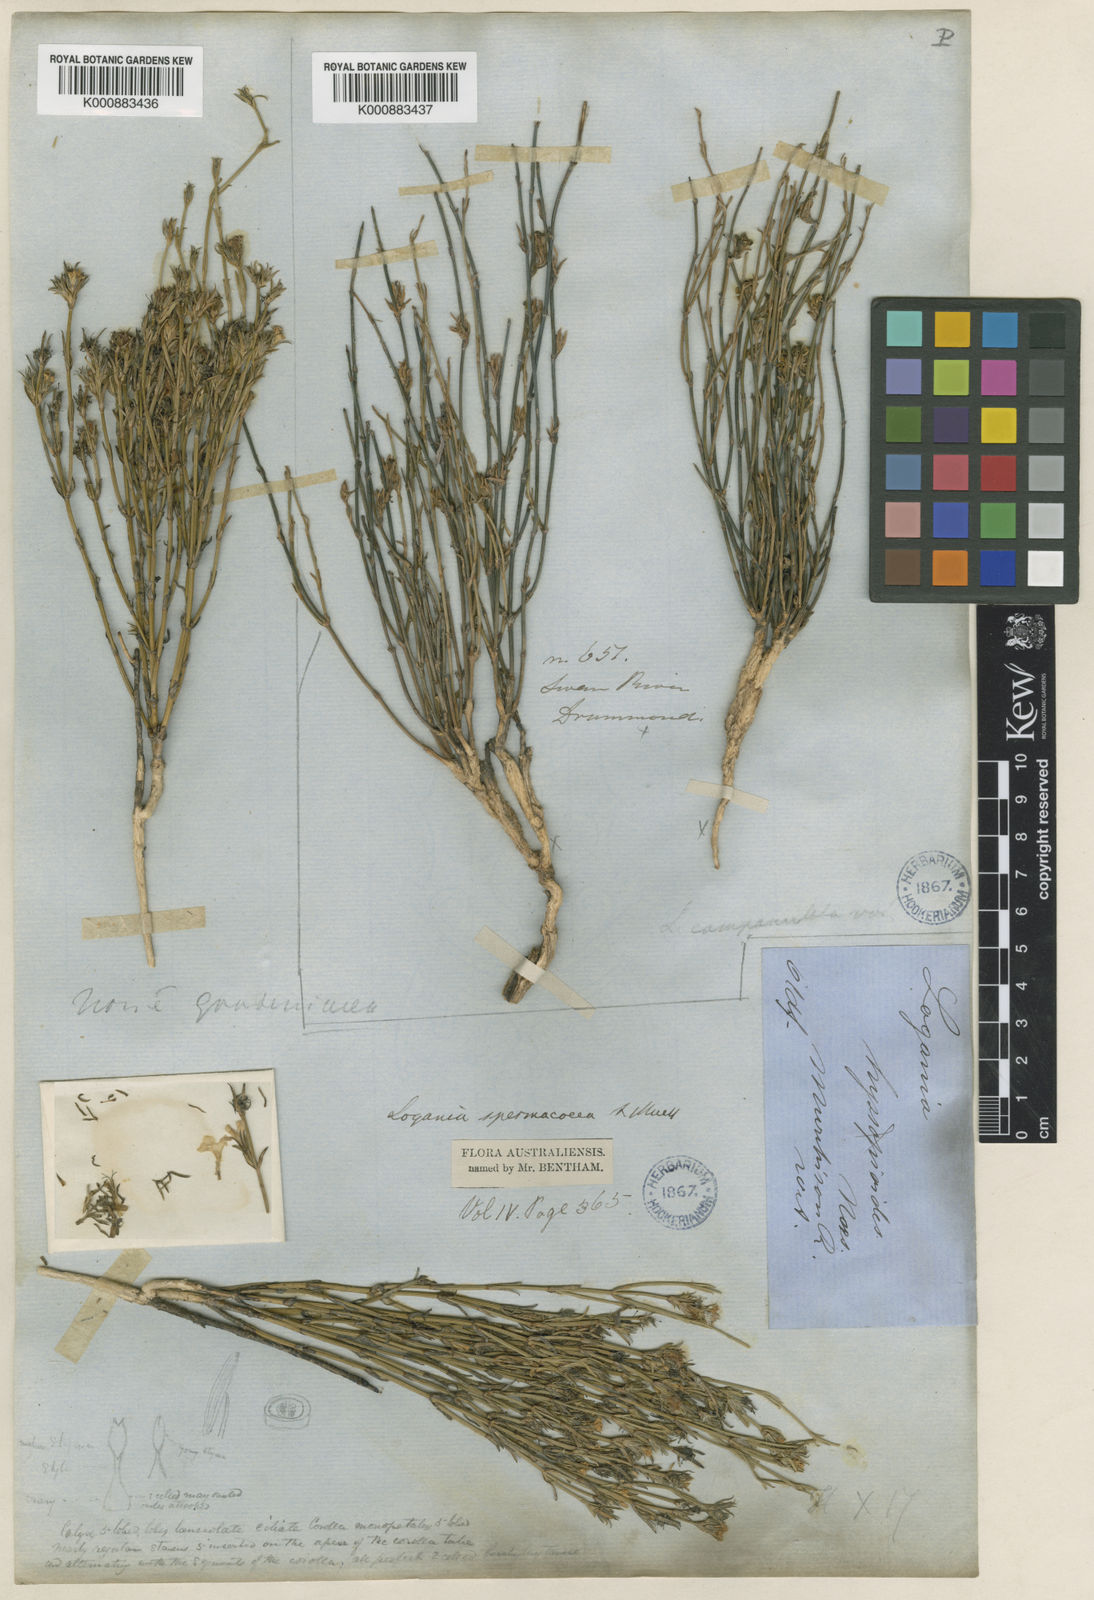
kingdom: Plantae
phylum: Tracheophyta
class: Magnoliopsida
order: Gentianales
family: Loganiaceae
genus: Orianthera
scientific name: Orianthera flaviflora
